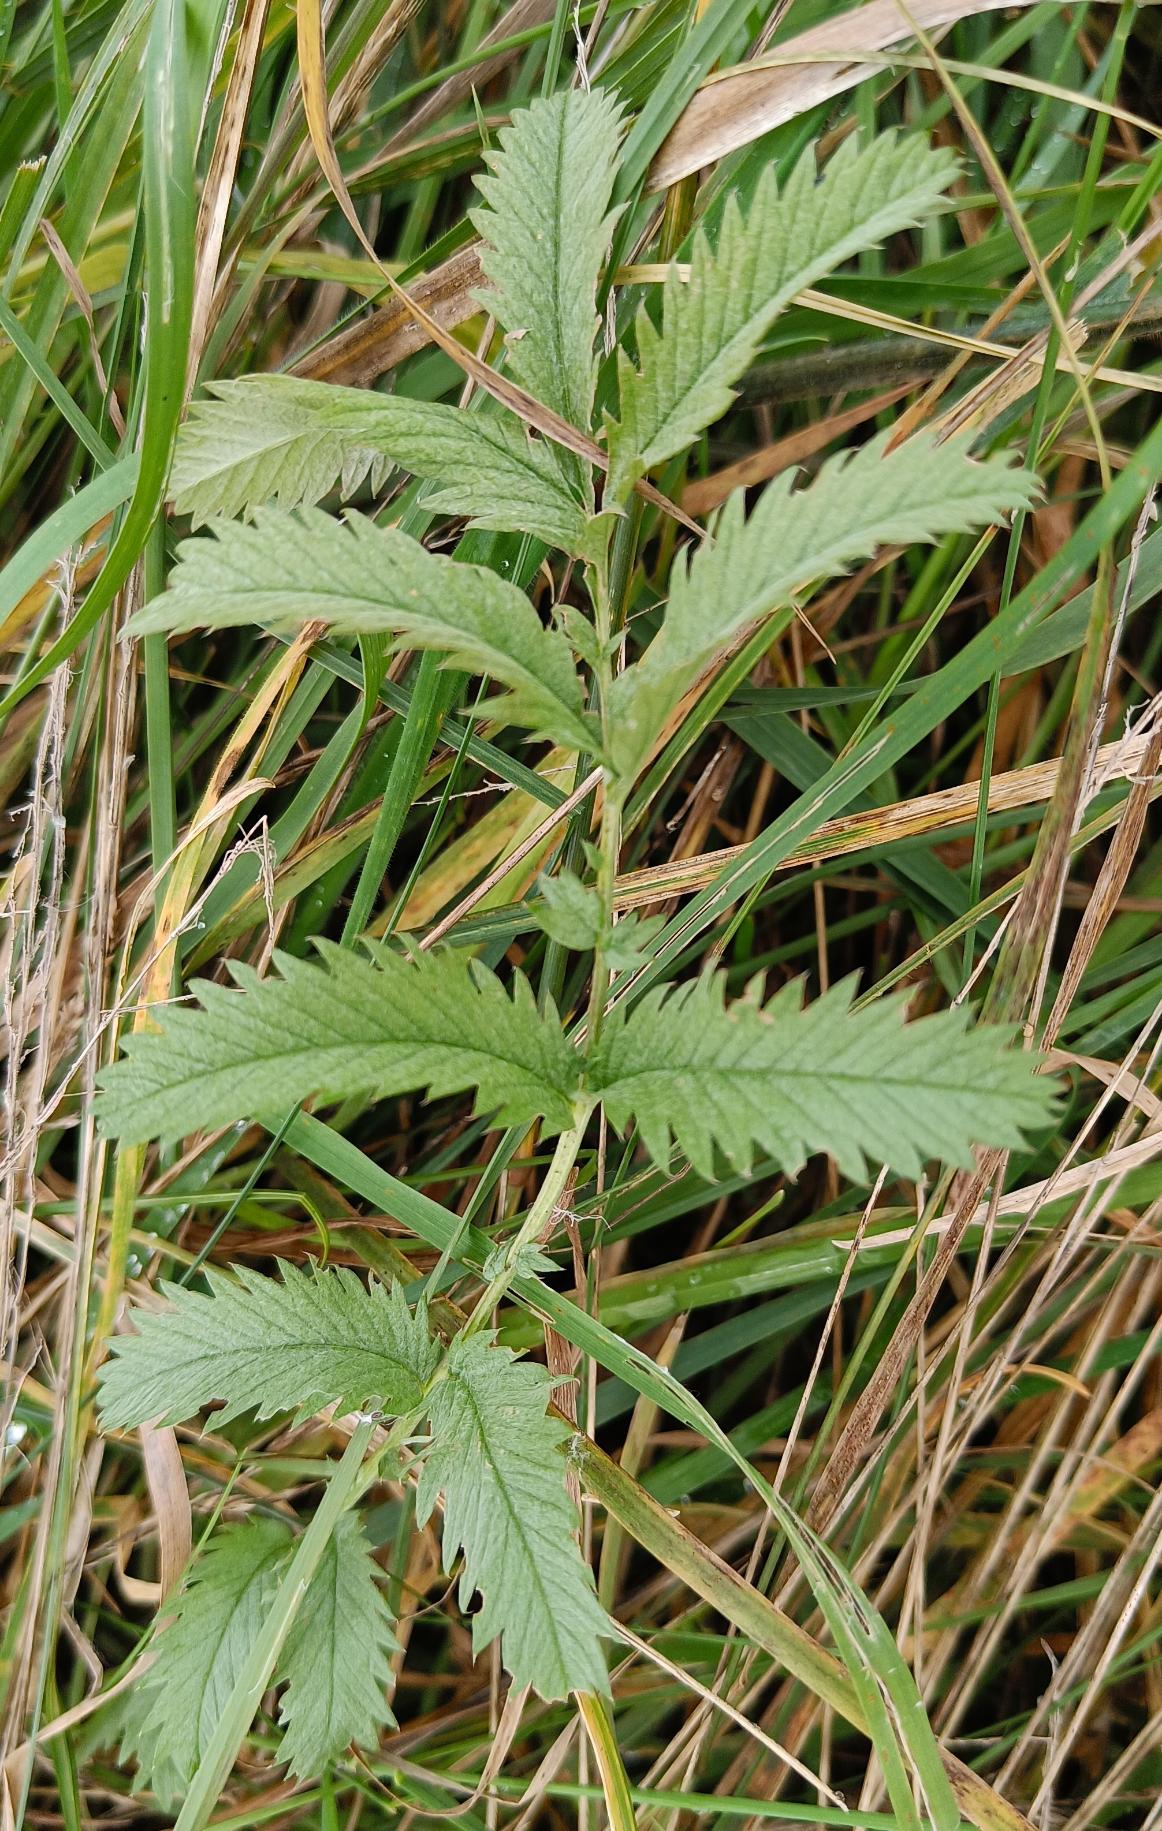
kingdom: Plantae
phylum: Tracheophyta
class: Magnoliopsida
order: Rosales
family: Rosaceae
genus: Argentina
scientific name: Argentina anserina
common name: Gåsepotentil
